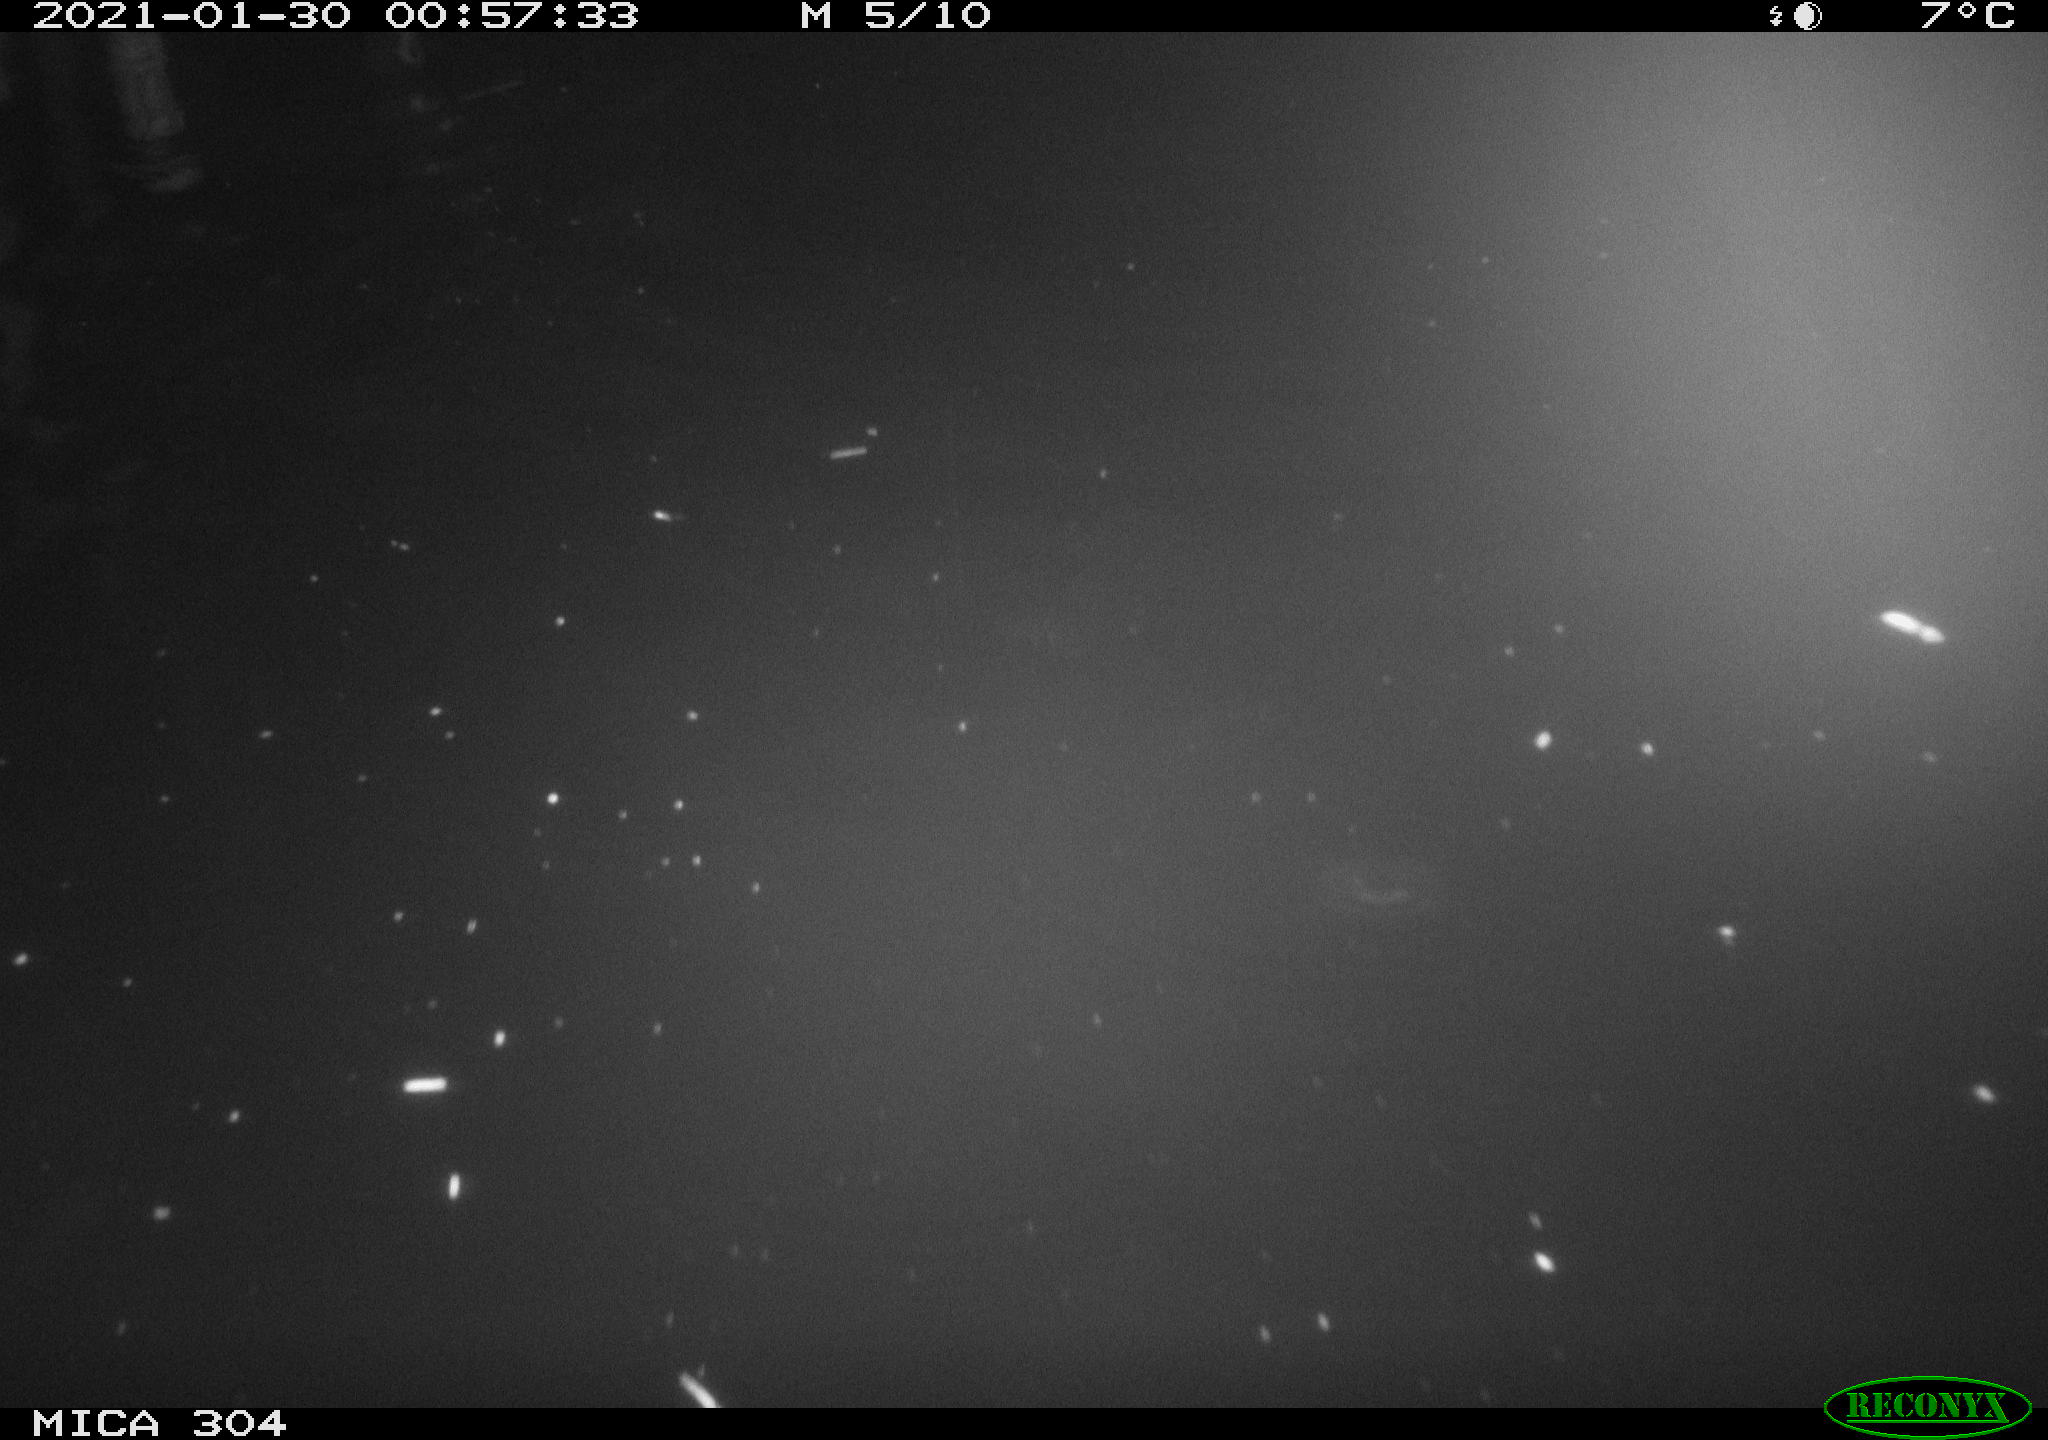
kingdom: Animalia
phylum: Chordata
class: Mammalia
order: Rodentia
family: Cricetidae
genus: Ondatra
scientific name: Ondatra zibethicus
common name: Muskrat
